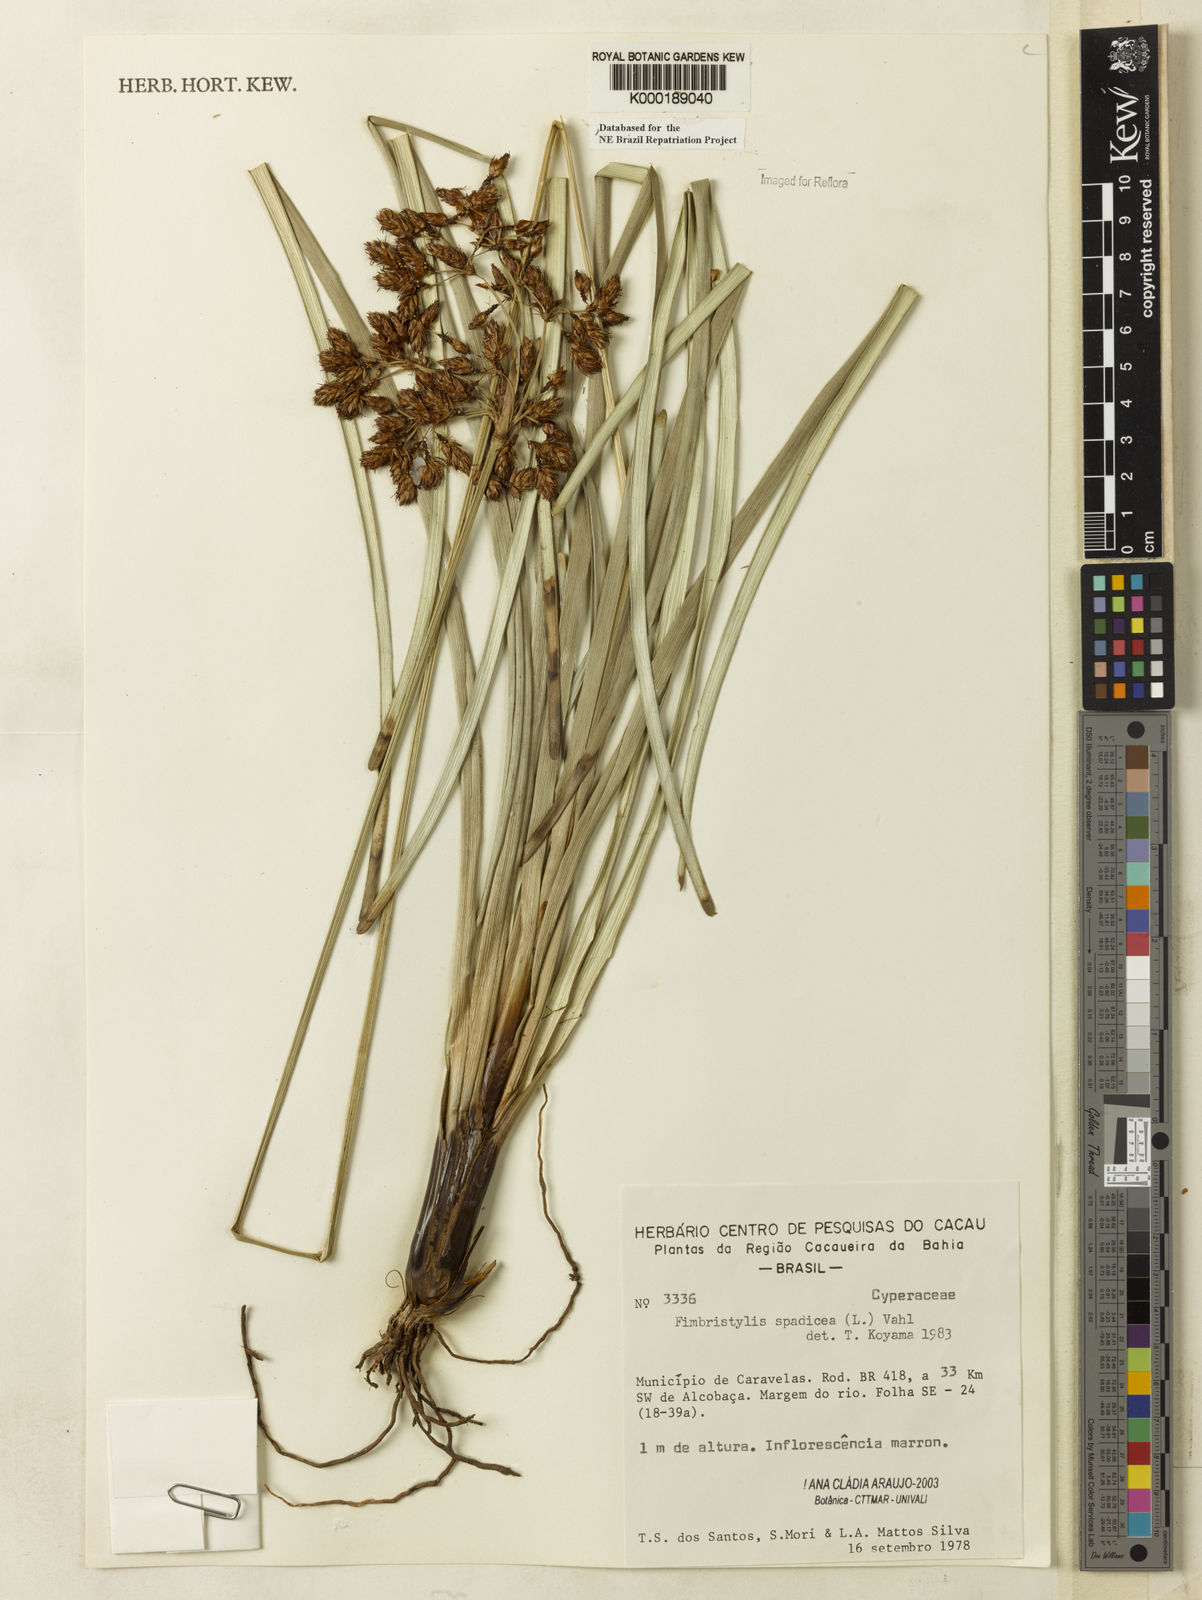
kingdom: Plantae
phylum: Tracheophyta
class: Liliopsida
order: Poales
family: Cyperaceae
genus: Fimbristylis
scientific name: Fimbristylis spadicea
